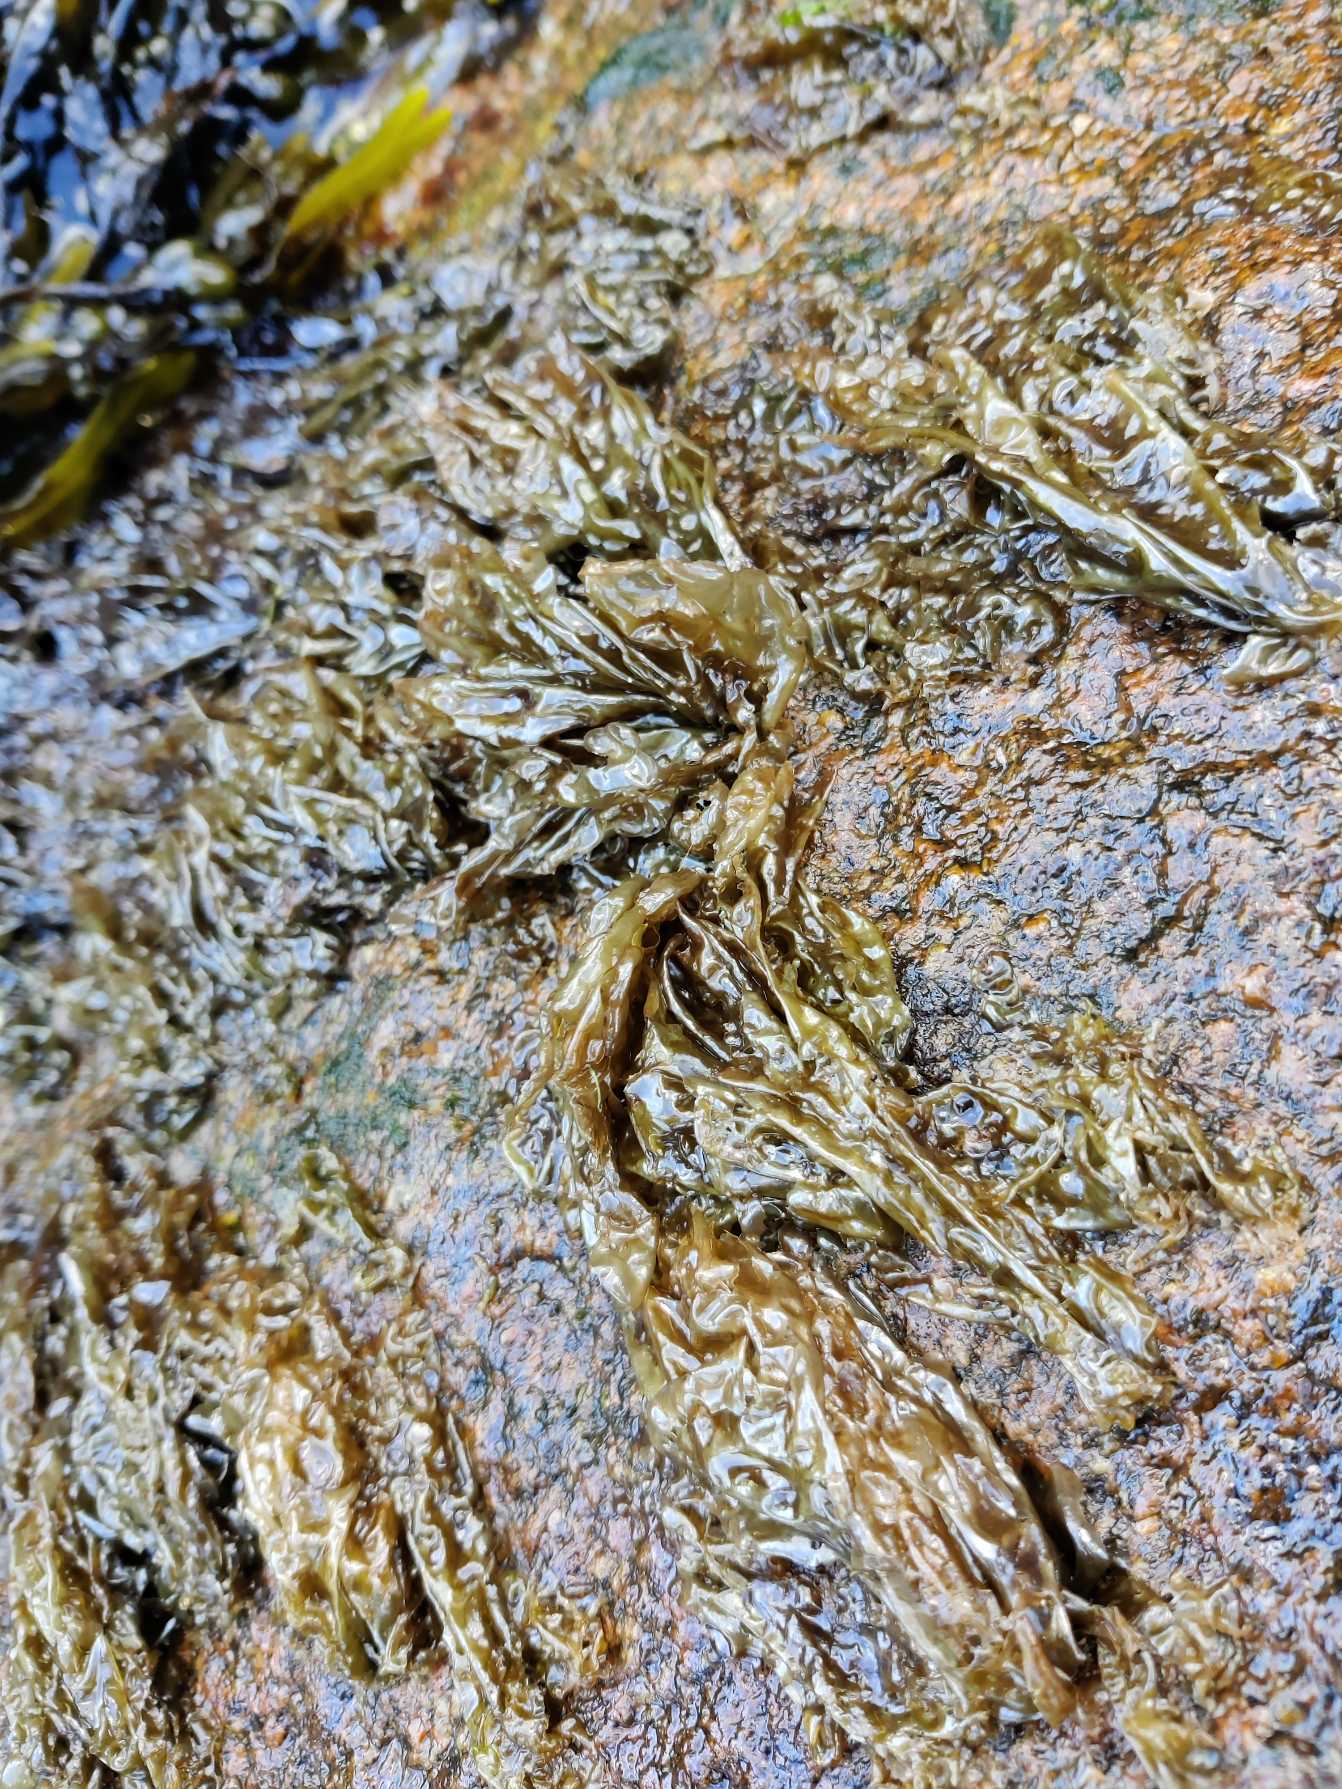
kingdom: Plantae
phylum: Rhodophyta
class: Bangiophyceae
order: Bangiales
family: Bangiaceae
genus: Porphyra
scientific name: Porphyra umbilicalis
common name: Navle-purpurhinde
